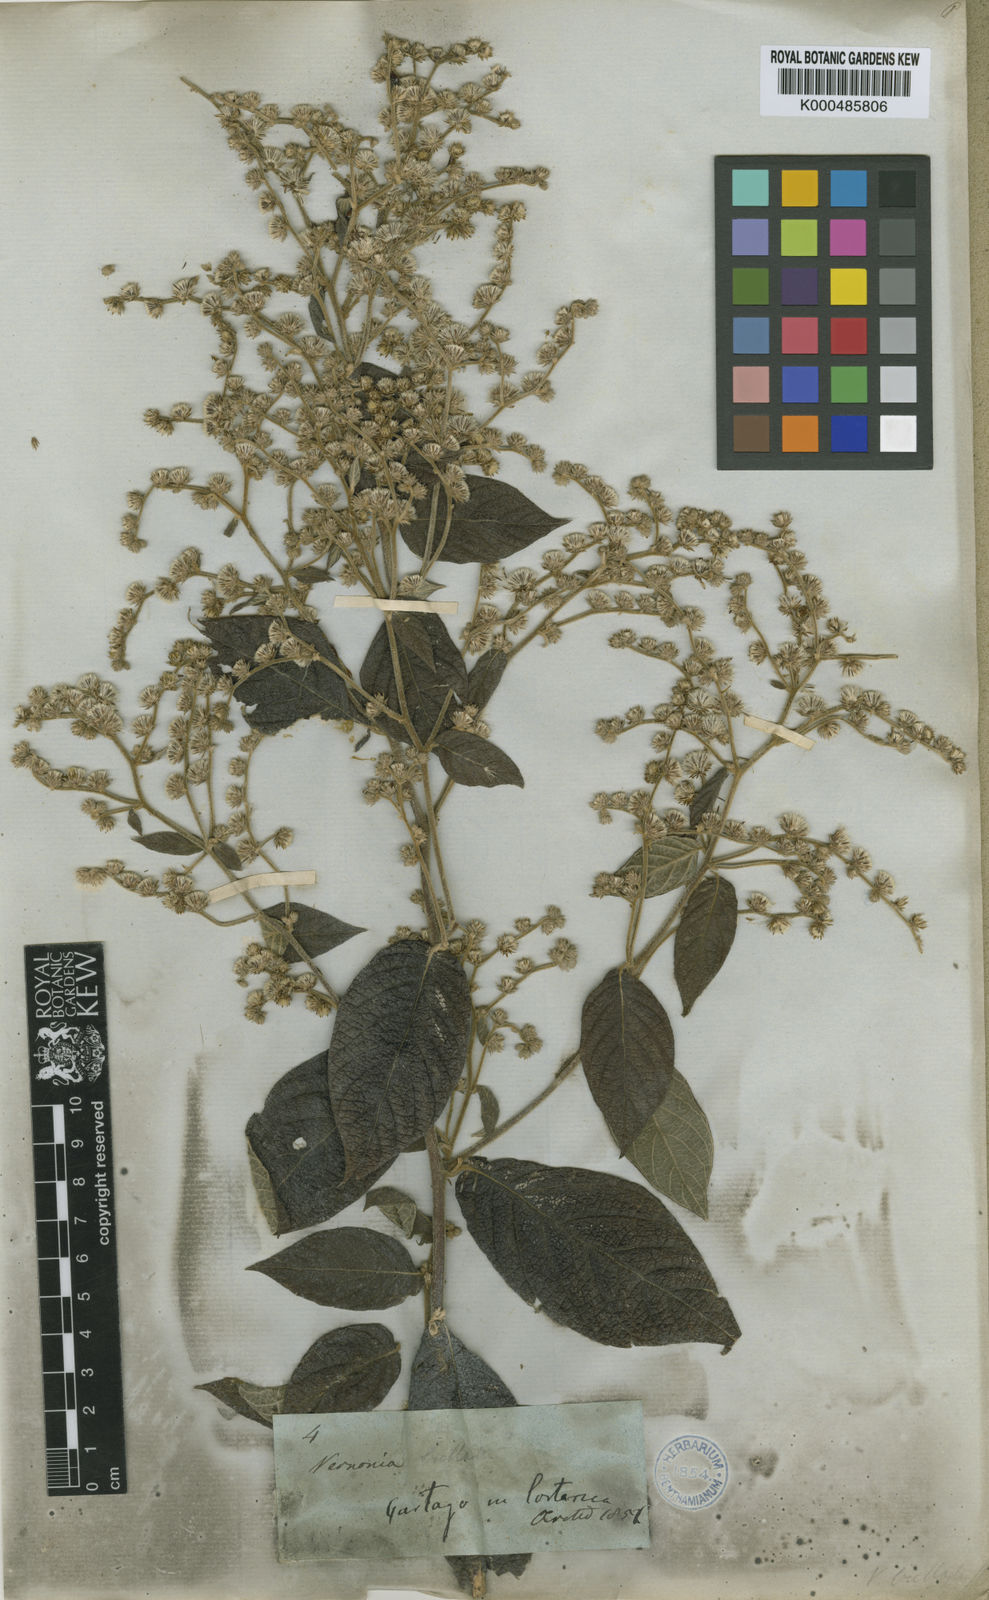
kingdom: Plantae
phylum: Tracheophyta
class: Magnoliopsida
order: Asterales
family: Asteraceae
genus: Lepidaploa
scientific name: Lepidaploa canescens
